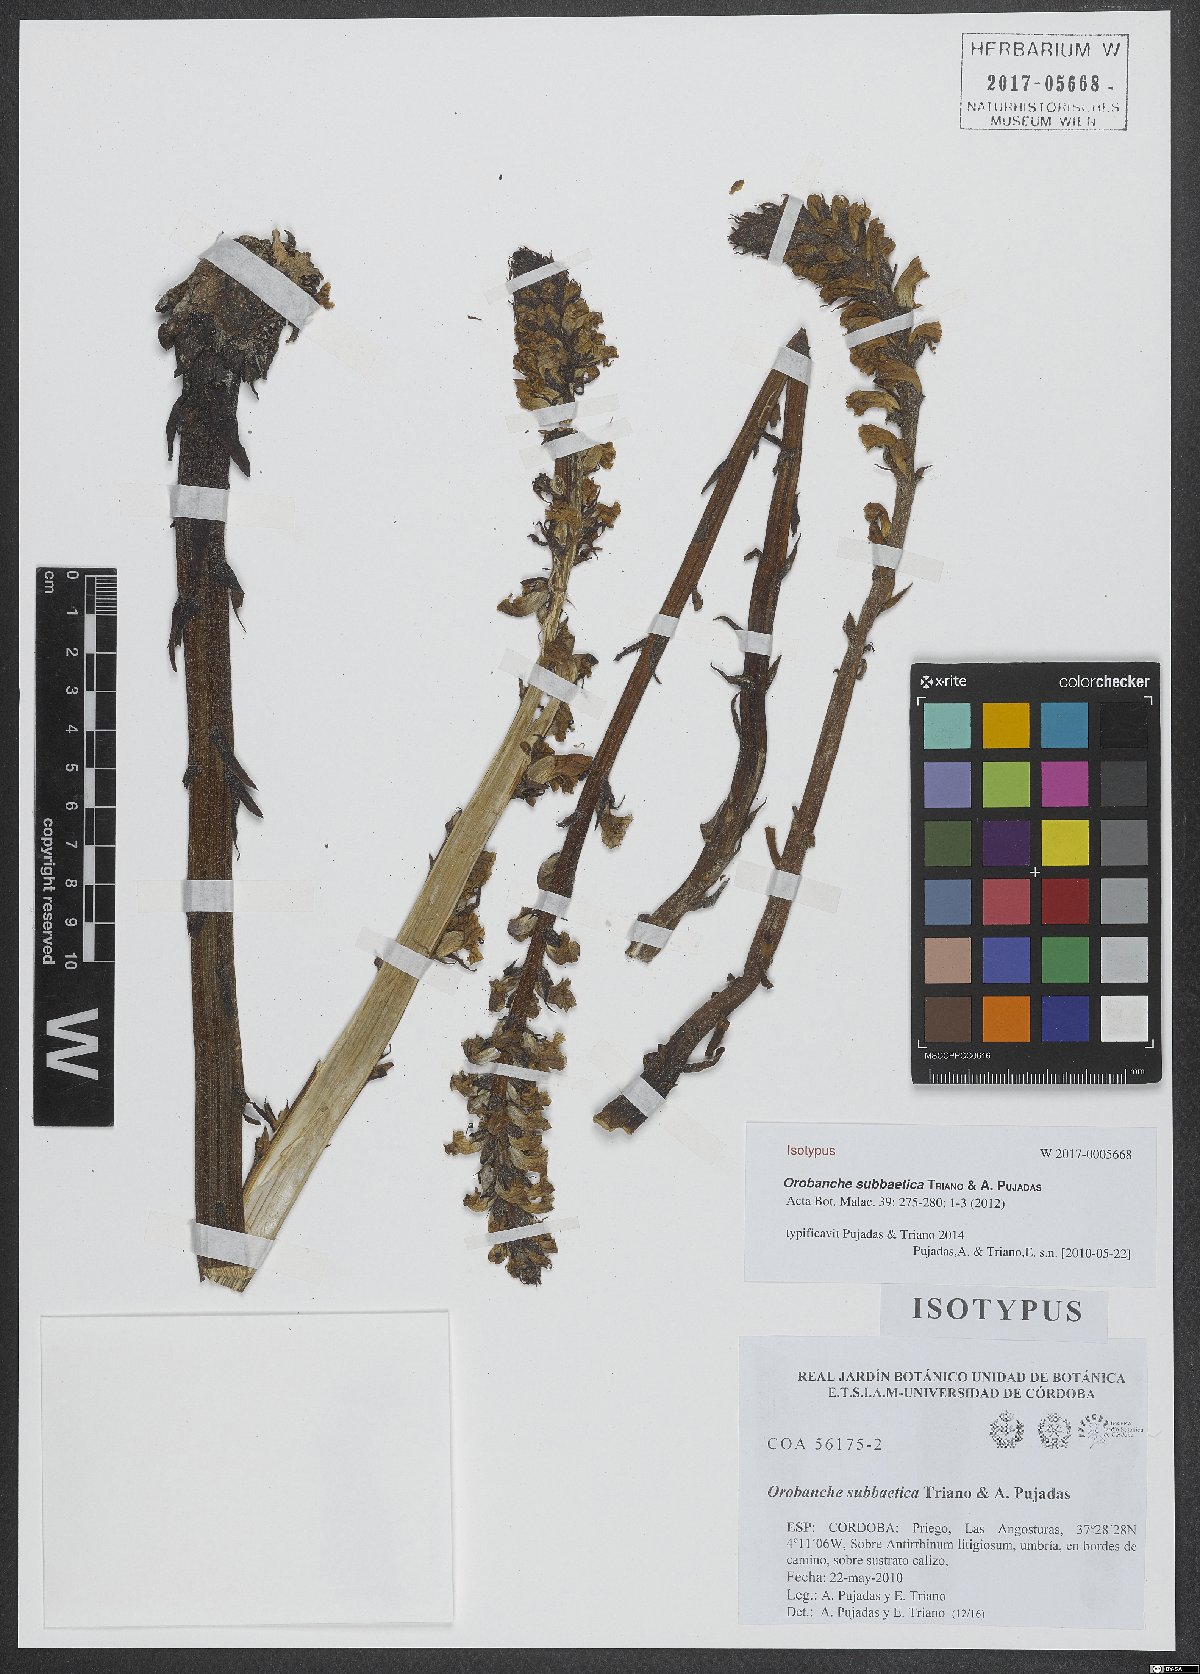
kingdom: Plantae
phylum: Tracheophyta
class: Magnoliopsida
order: Lamiales
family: Orobanchaceae
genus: Orobanche
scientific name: Orobanche subbaetica
